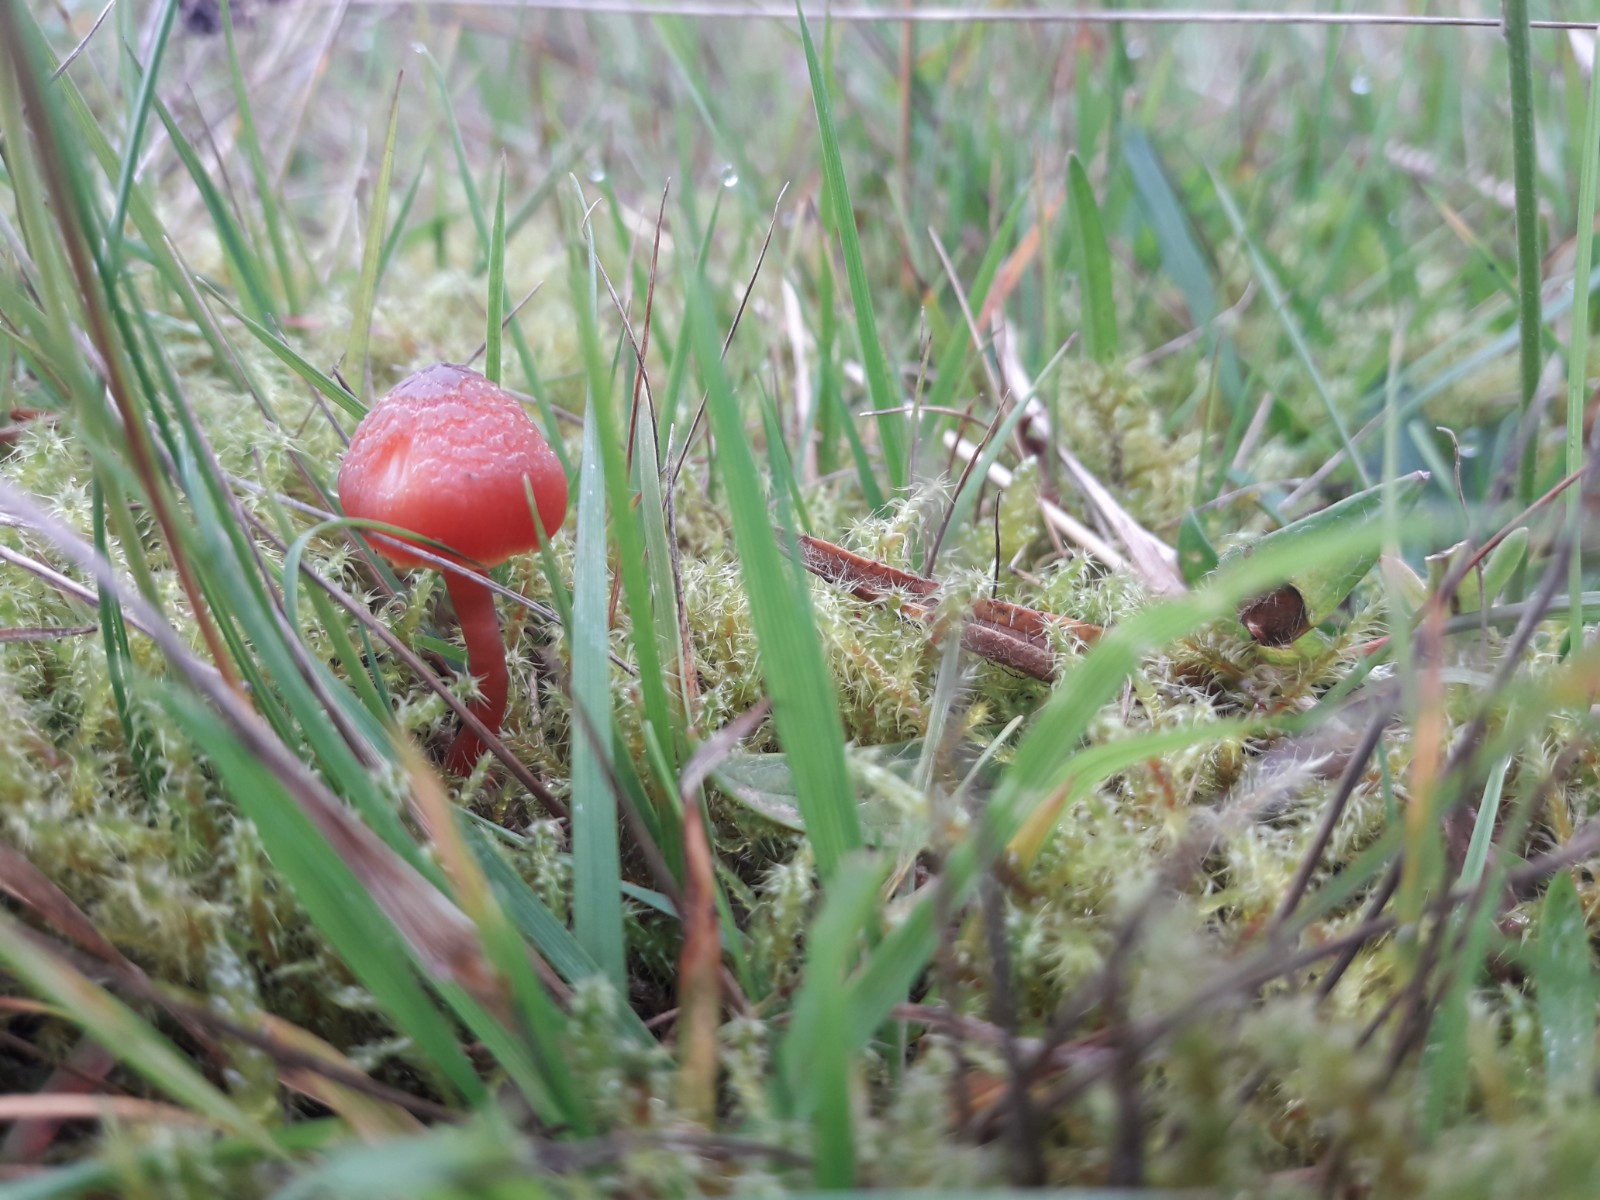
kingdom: Fungi
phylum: Basidiomycota
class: Agaricomycetes
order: Agaricales
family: Hygrophoraceae
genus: Hygrocybe
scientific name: Hygrocybe phaeococcinea
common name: sortdugget vokshat
